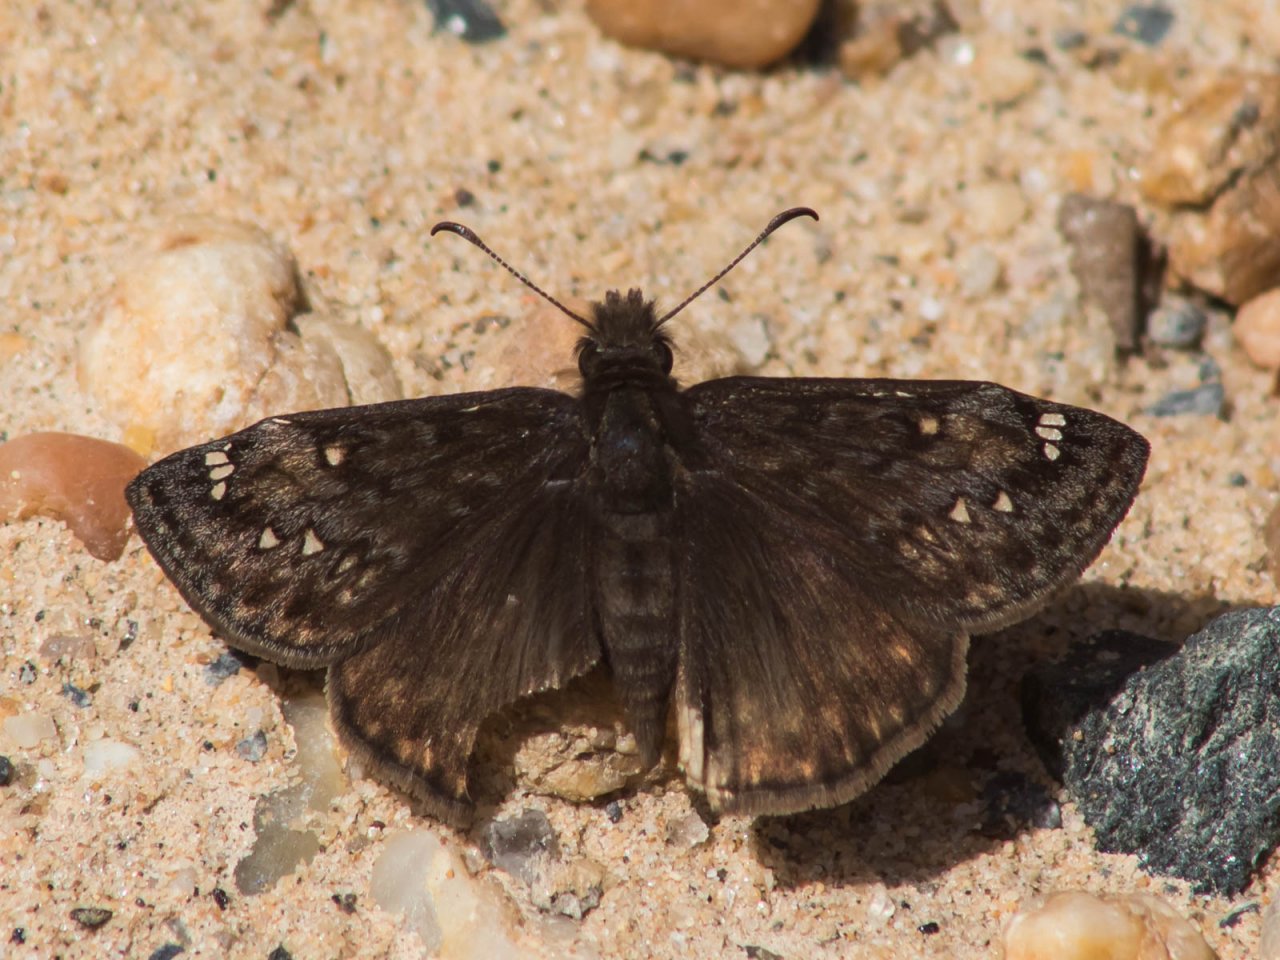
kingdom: Animalia
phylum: Arthropoda
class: Insecta
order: Lepidoptera
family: Hesperiidae
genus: Erynnis
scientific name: Erynnis
